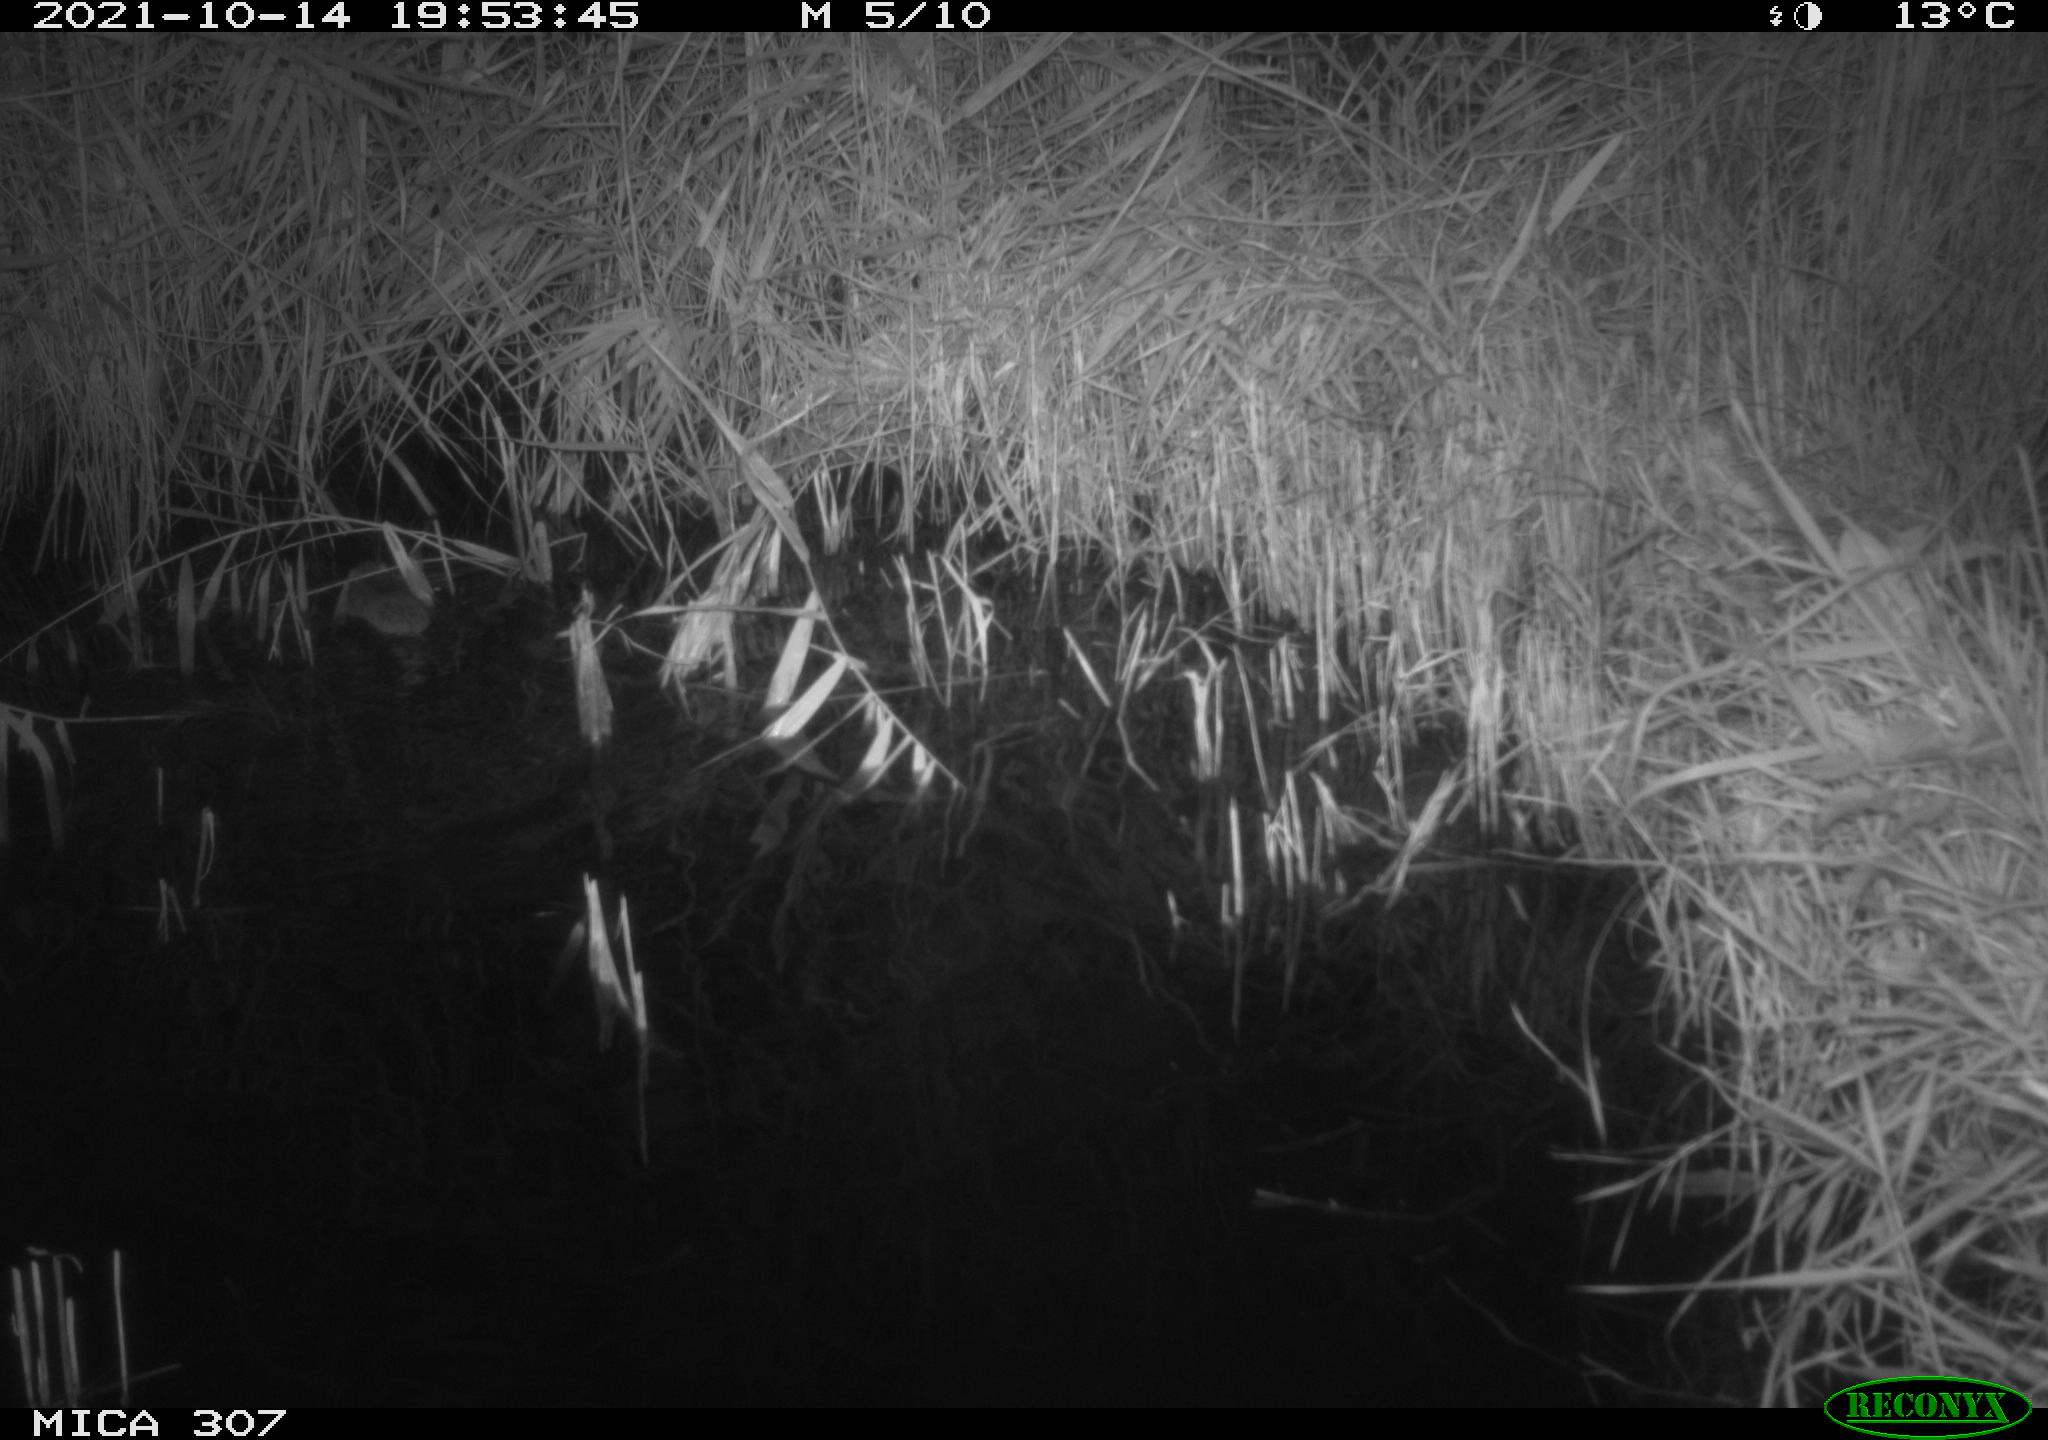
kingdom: Animalia
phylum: Chordata
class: Mammalia
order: Rodentia
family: Muridae
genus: Rattus
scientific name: Rattus norvegicus
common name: Brown rat
